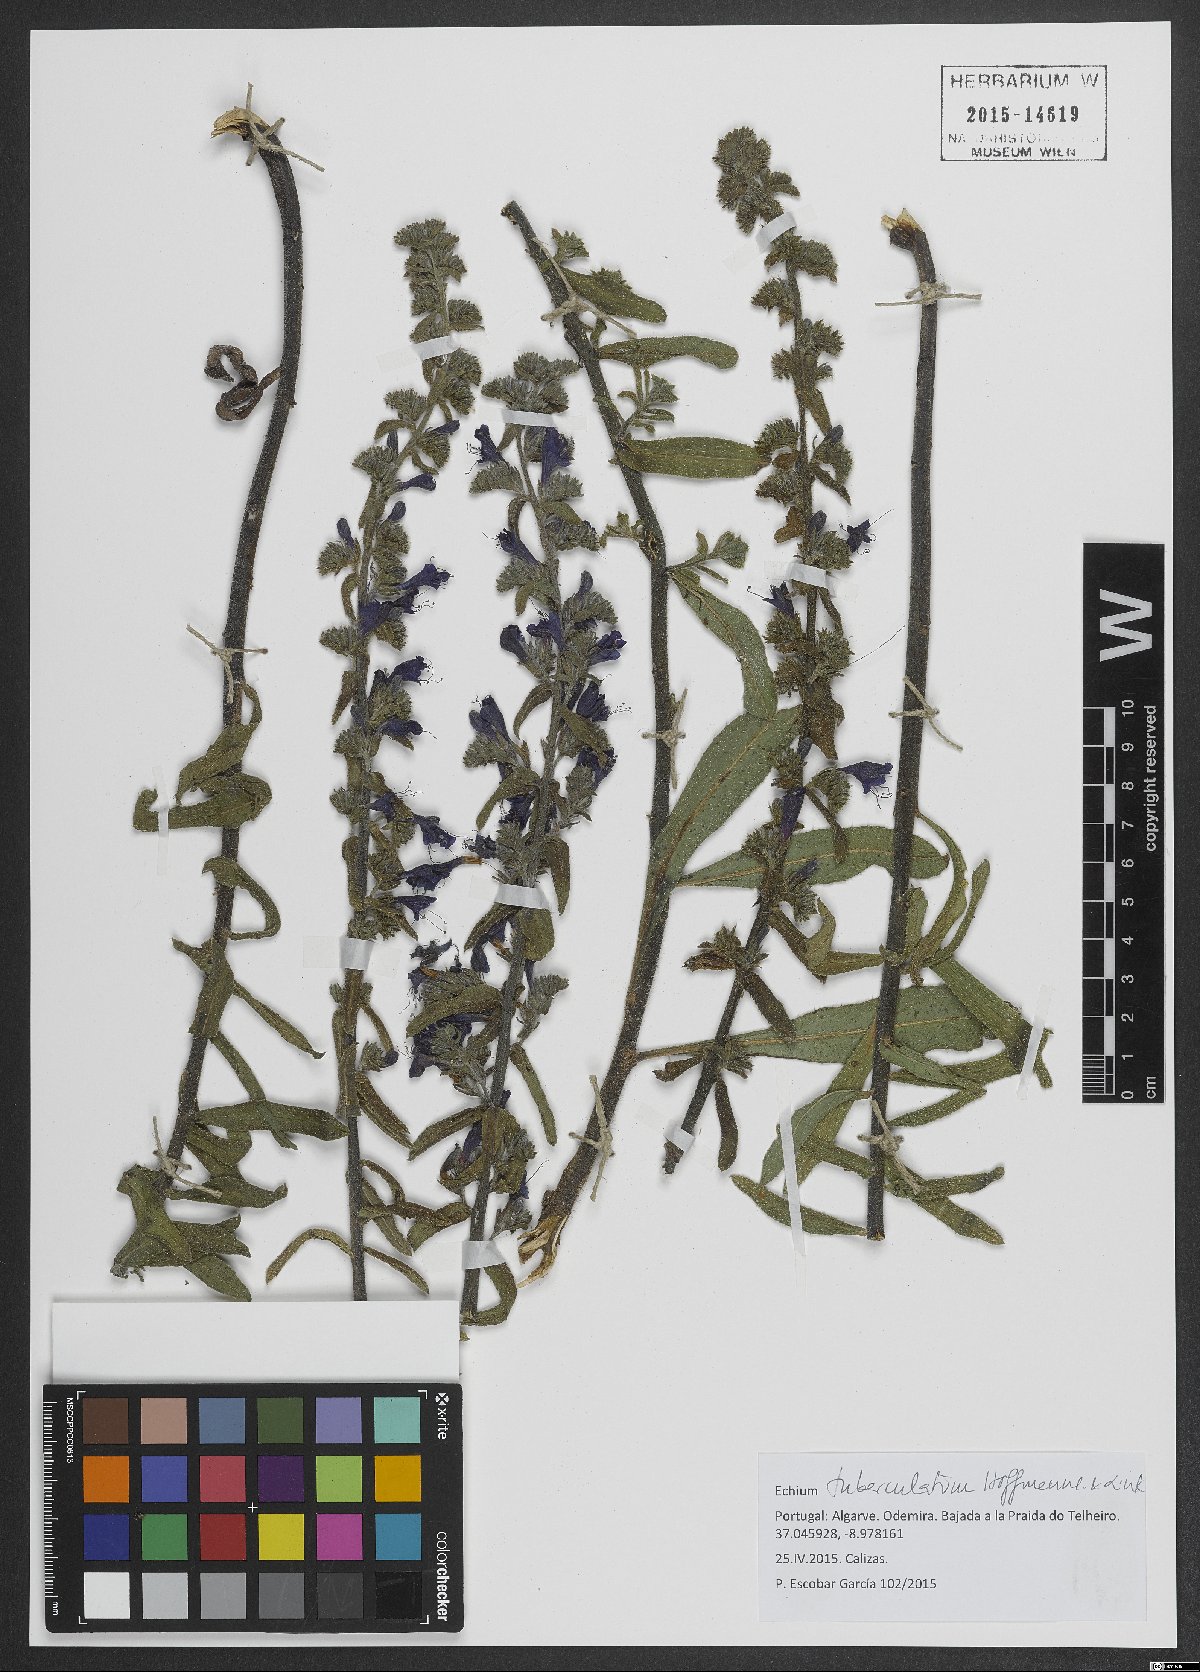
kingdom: Plantae
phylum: Tracheophyta
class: Magnoliopsida
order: Boraginales
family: Boraginaceae
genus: Echium
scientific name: Echium tuberculatum
